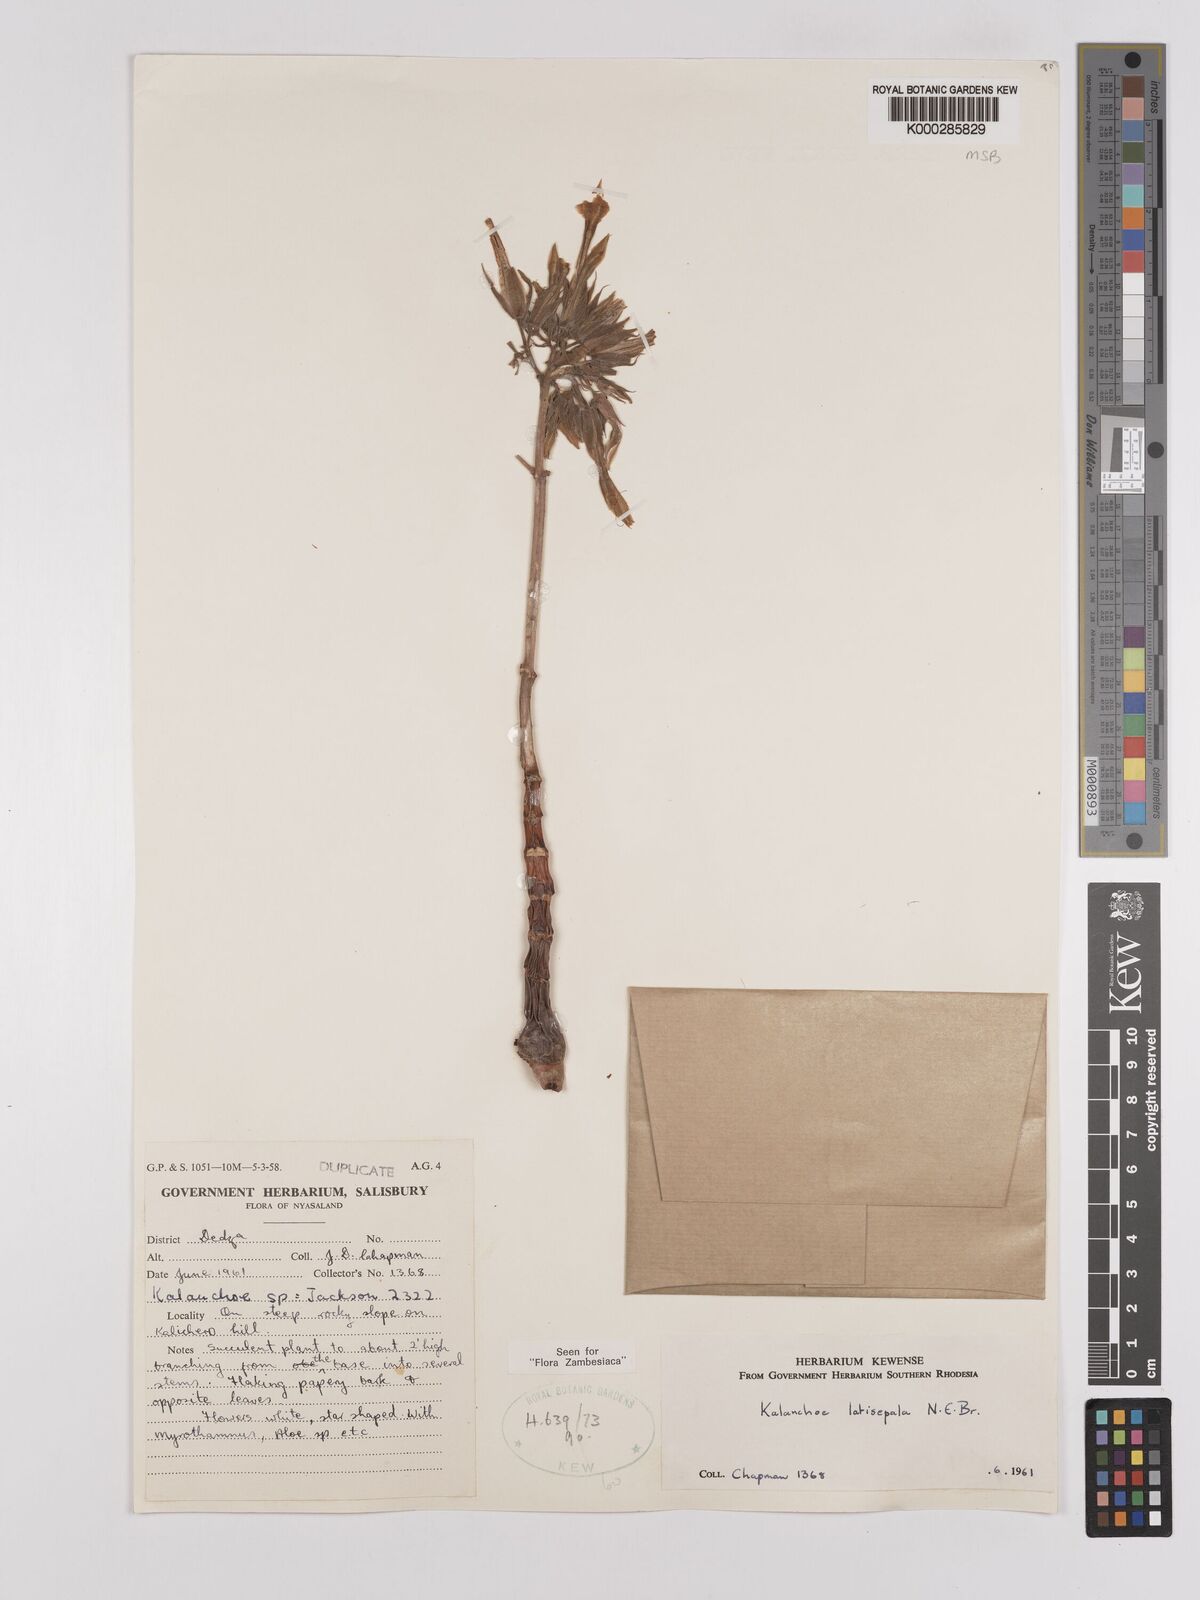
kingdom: Plantae
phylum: Tracheophyta
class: Magnoliopsida
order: Saxifragales
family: Crassulaceae
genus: Kalanchoe
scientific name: Kalanchoe latisepala
